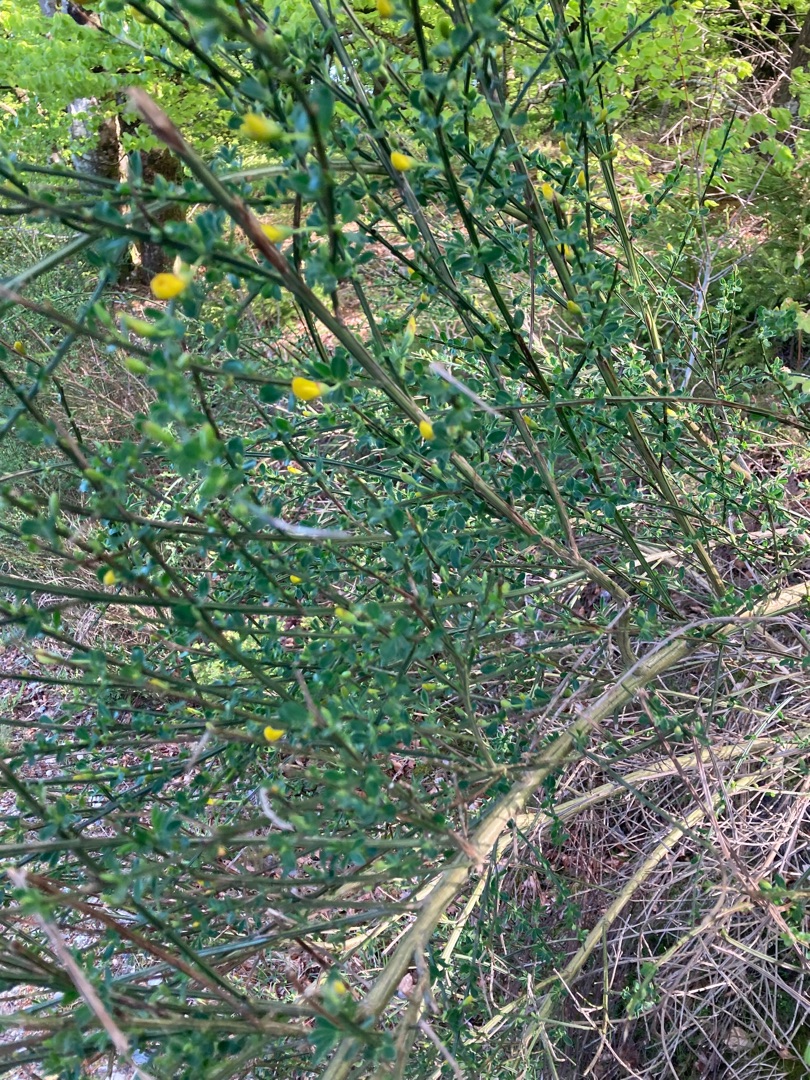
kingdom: Plantae
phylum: Tracheophyta
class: Magnoliopsida
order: Fabales
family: Fabaceae
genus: Cytisus
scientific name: Cytisus scoparius
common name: Almindelig gyvel
